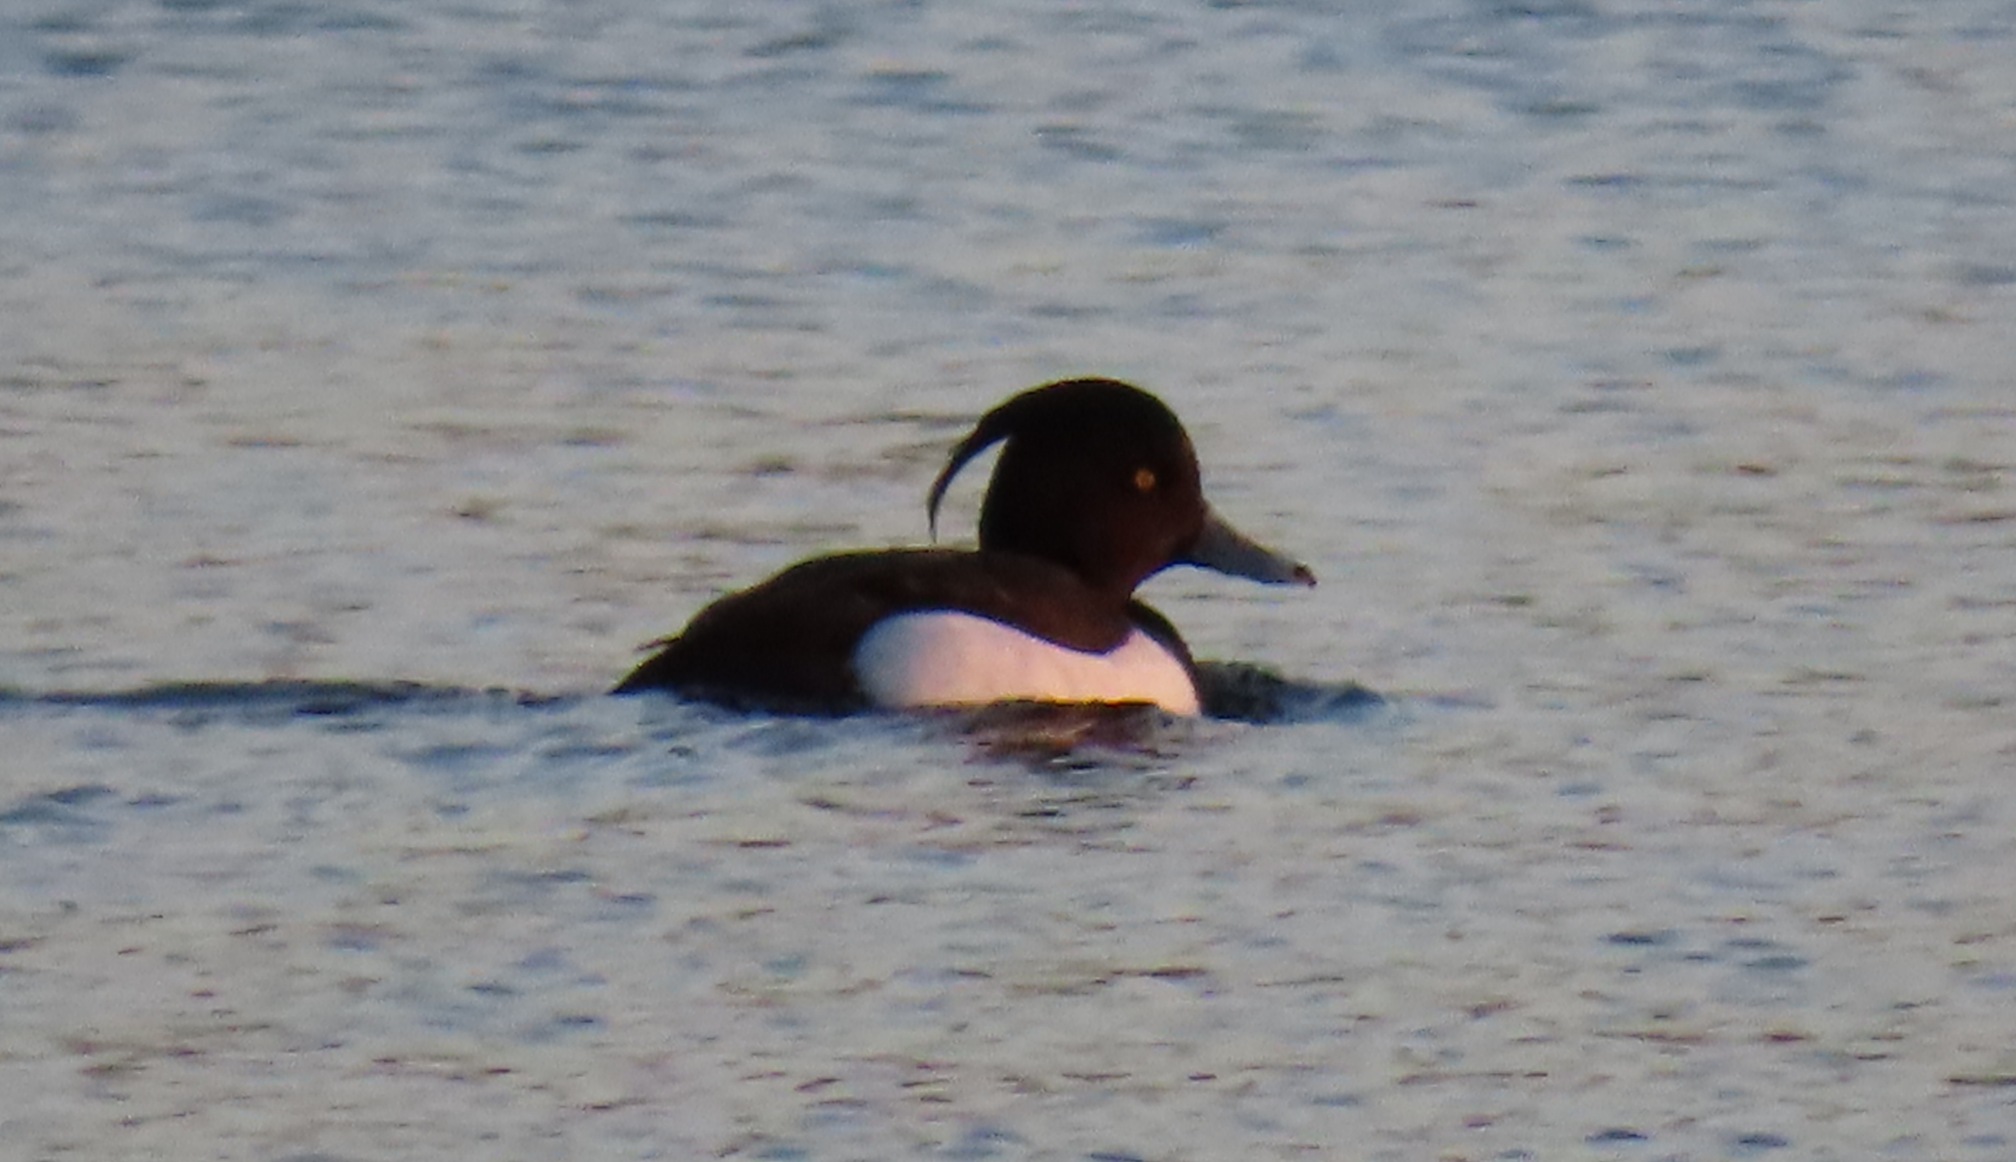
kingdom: Animalia
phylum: Chordata
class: Aves
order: Anseriformes
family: Anatidae
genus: Aythya
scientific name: Aythya fuligula
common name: Troldand
